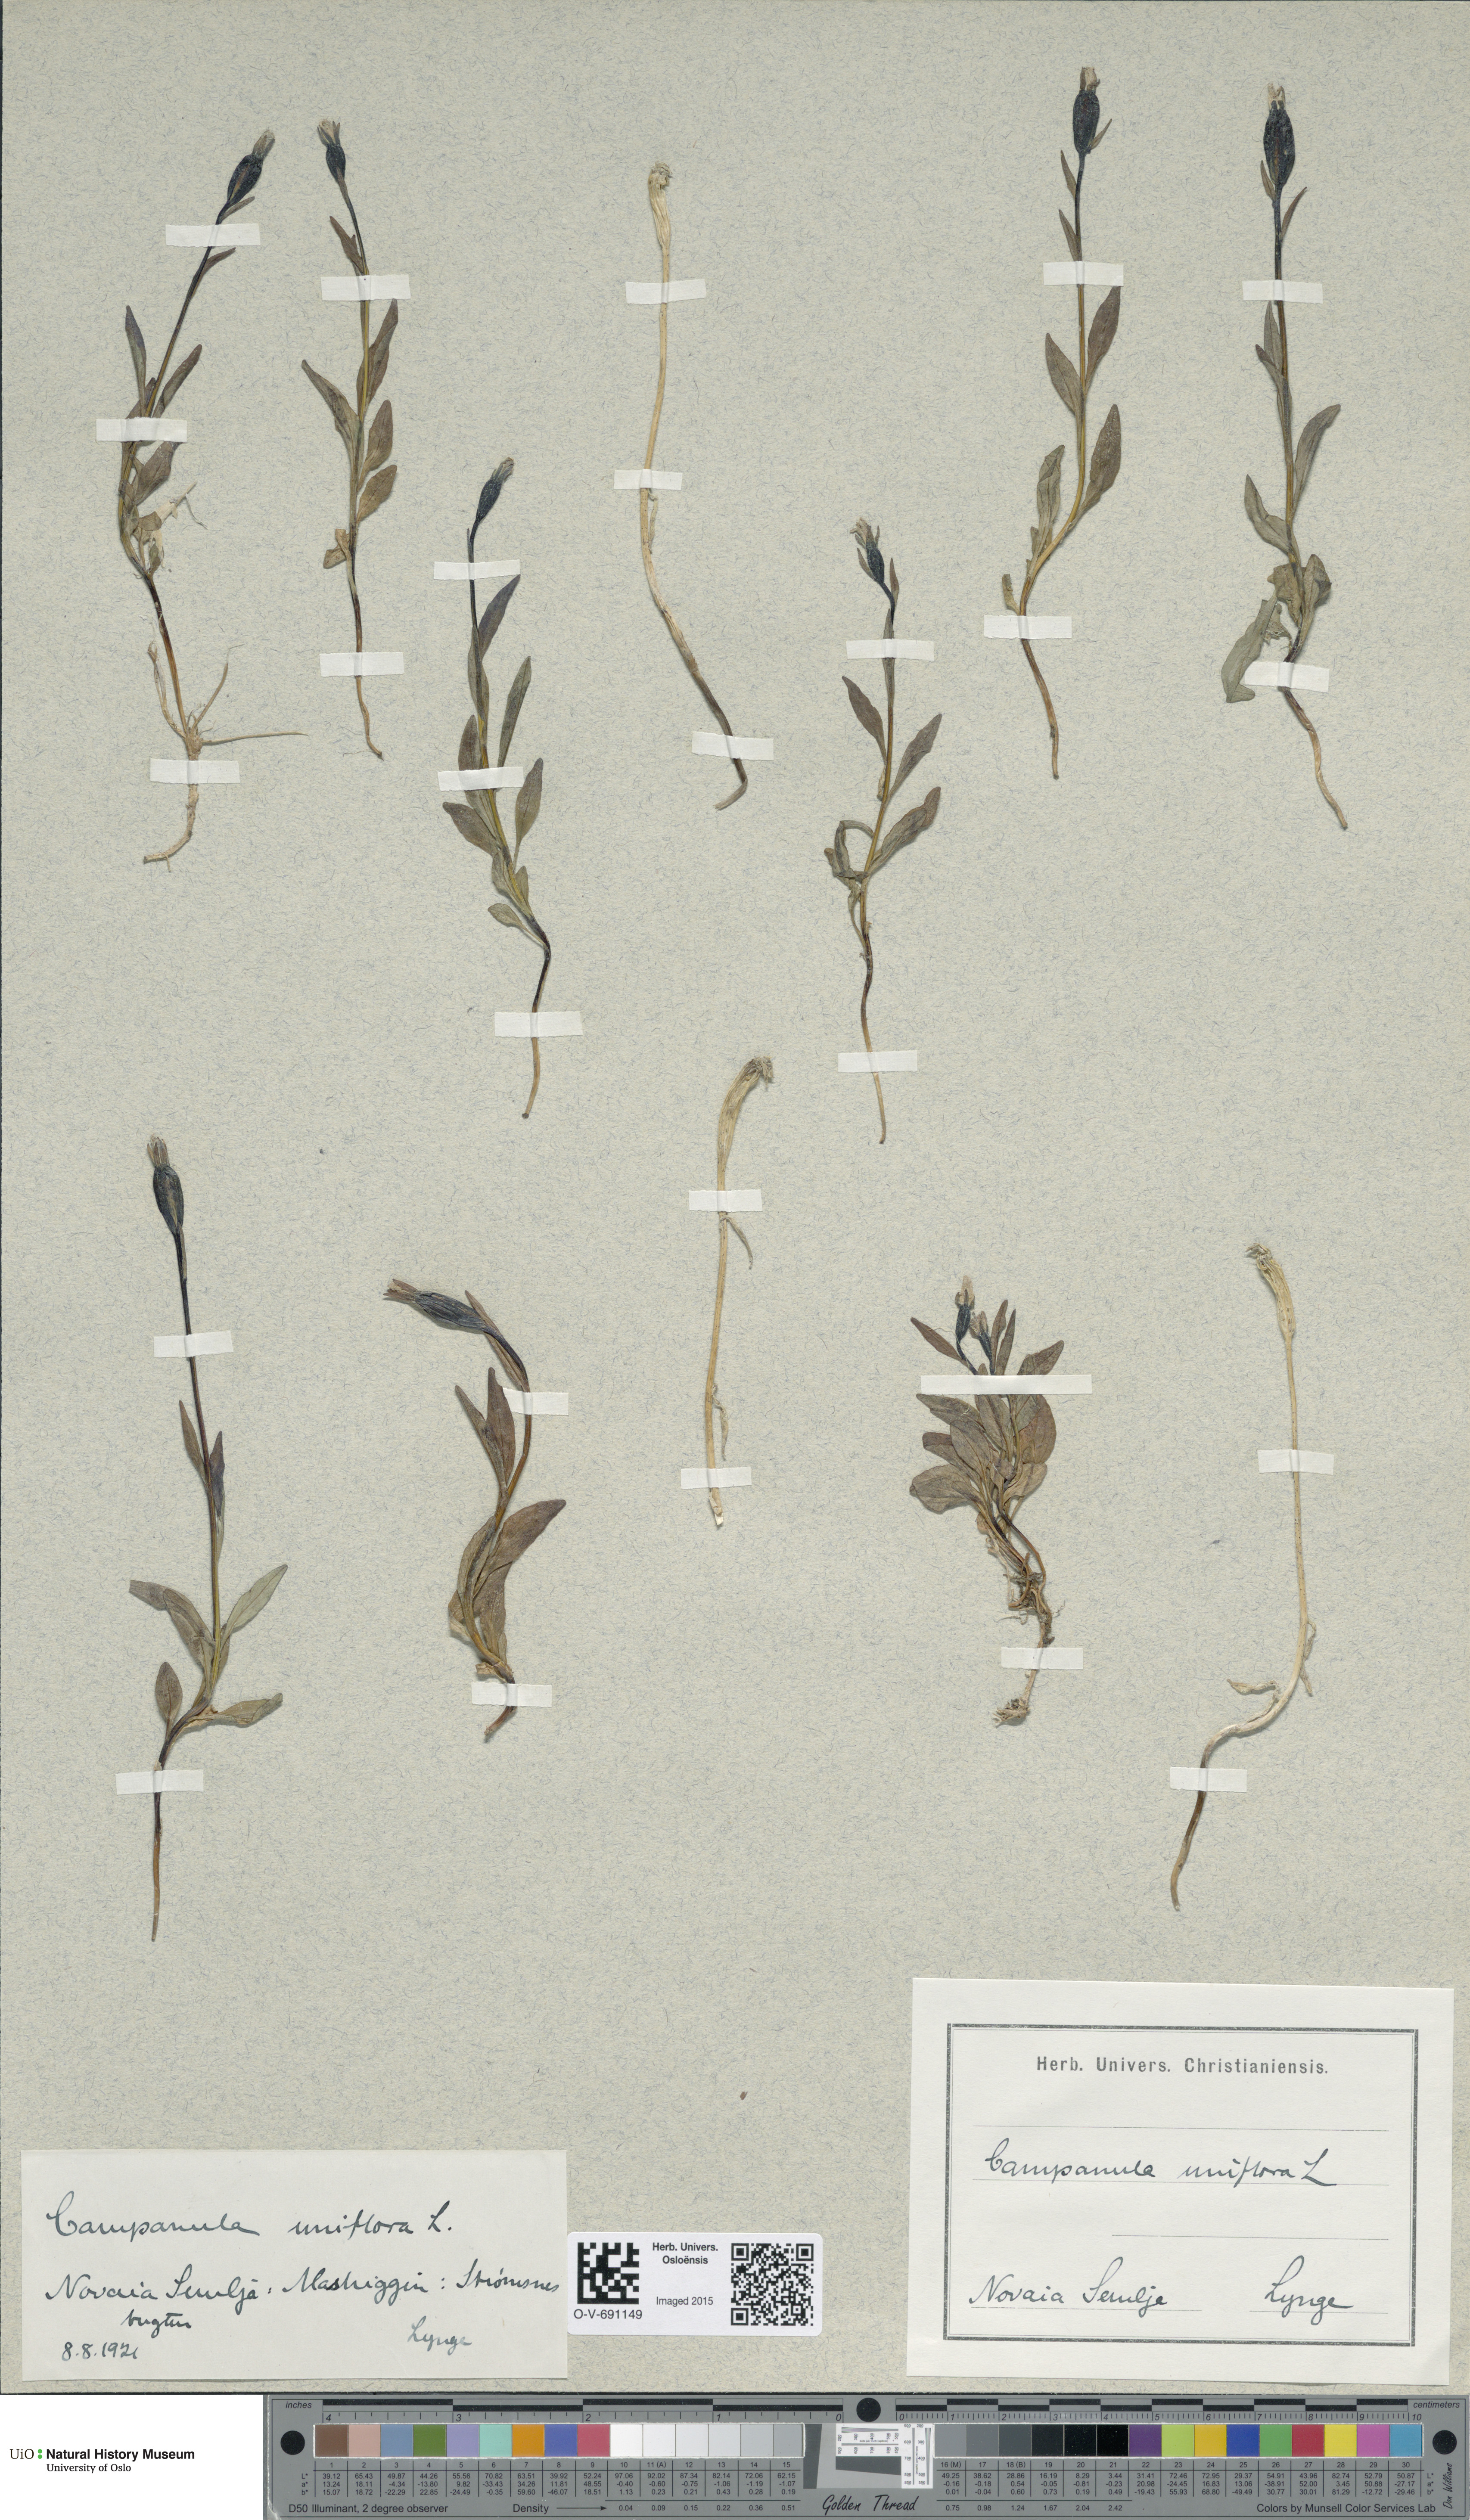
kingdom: Plantae
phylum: Tracheophyta
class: Magnoliopsida
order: Asterales
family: Campanulaceae
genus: Melanocalyx
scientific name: Melanocalyx uniflora
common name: Alpine harebell
